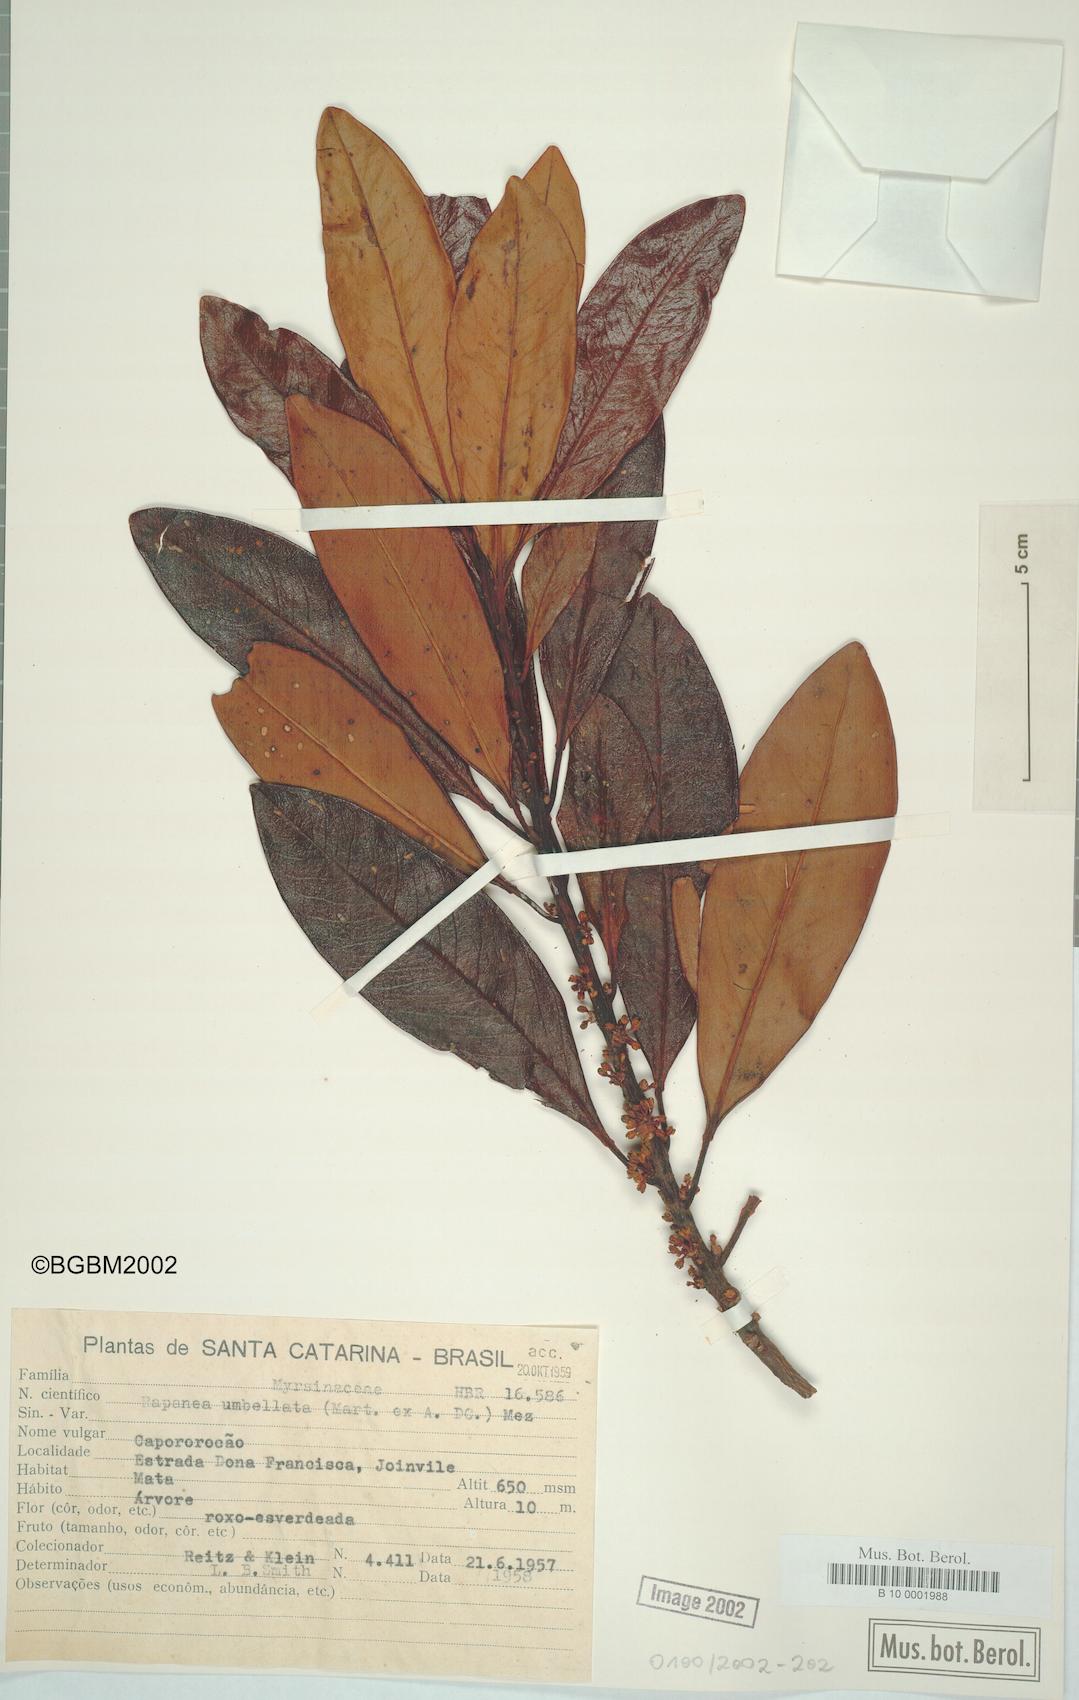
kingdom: Plantae
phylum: Tracheophyta
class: Magnoliopsida
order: Ericales
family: Primulaceae
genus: Myrsine
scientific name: Myrsine umbellata
